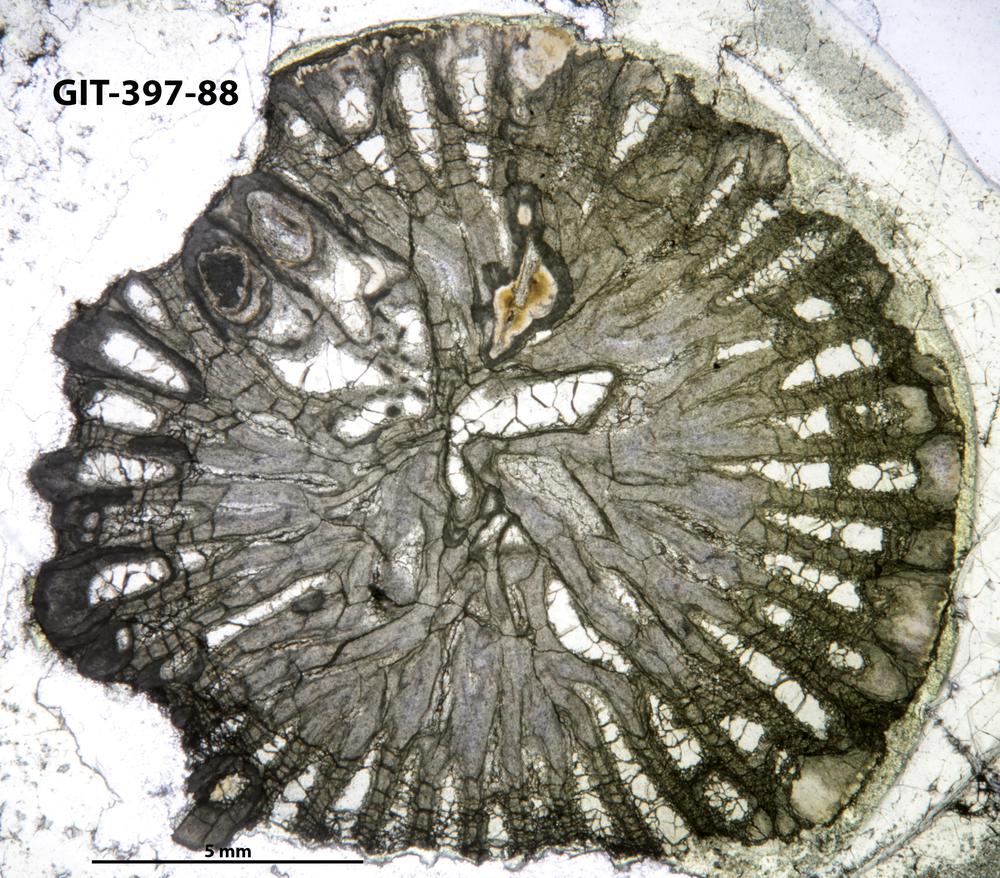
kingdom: Animalia
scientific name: Animalia
